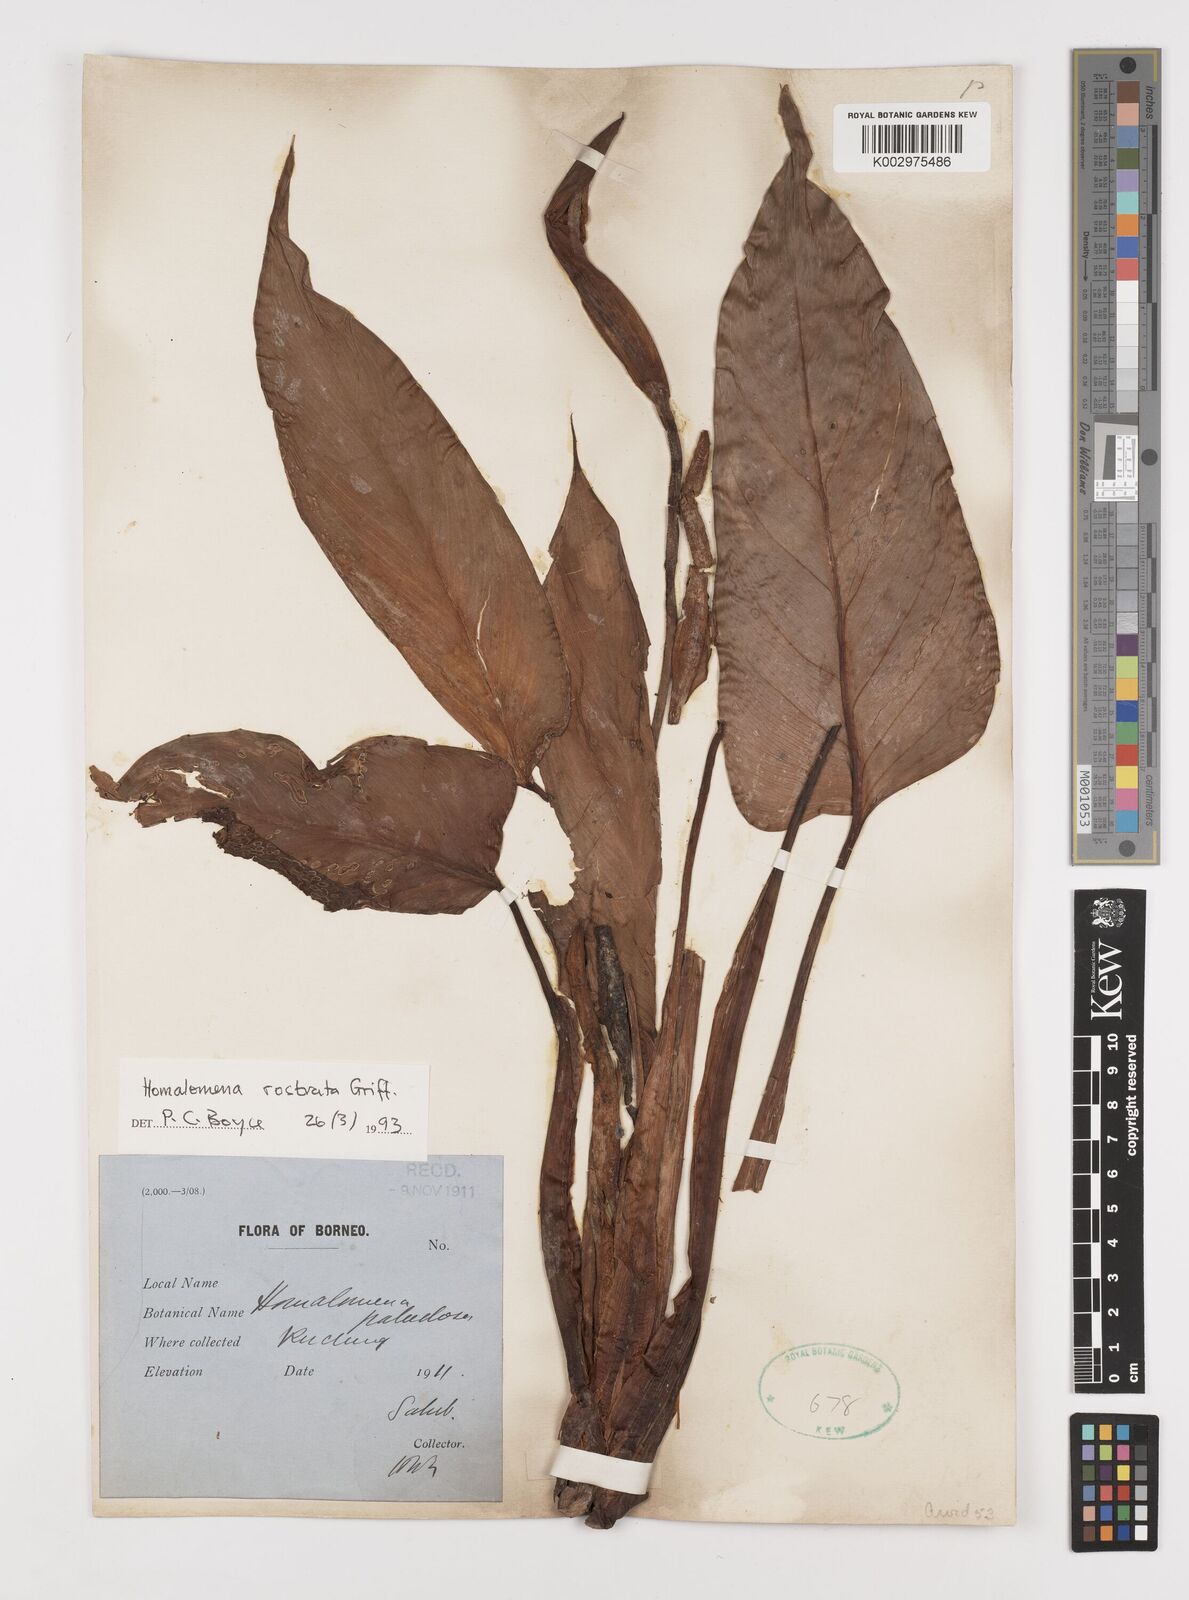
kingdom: Plantae
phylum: Tracheophyta
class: Liliopsida
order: Alismatales
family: Araceae
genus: Homalomena
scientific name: Homalomena rostrata
